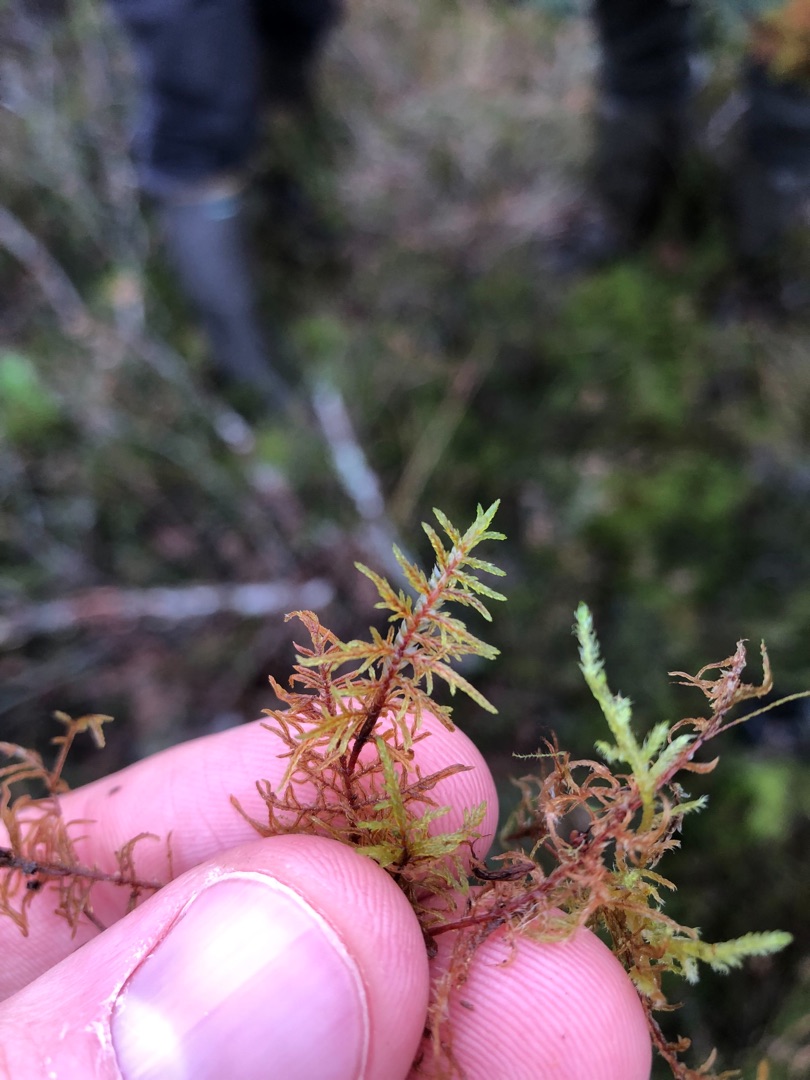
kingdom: Plantae
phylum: Bryophyta
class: Bryopsida
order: Hypnales
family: Hylocomiaceae
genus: Hylocomium
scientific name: Hylocomium splendens
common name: Almindelig etagemos
